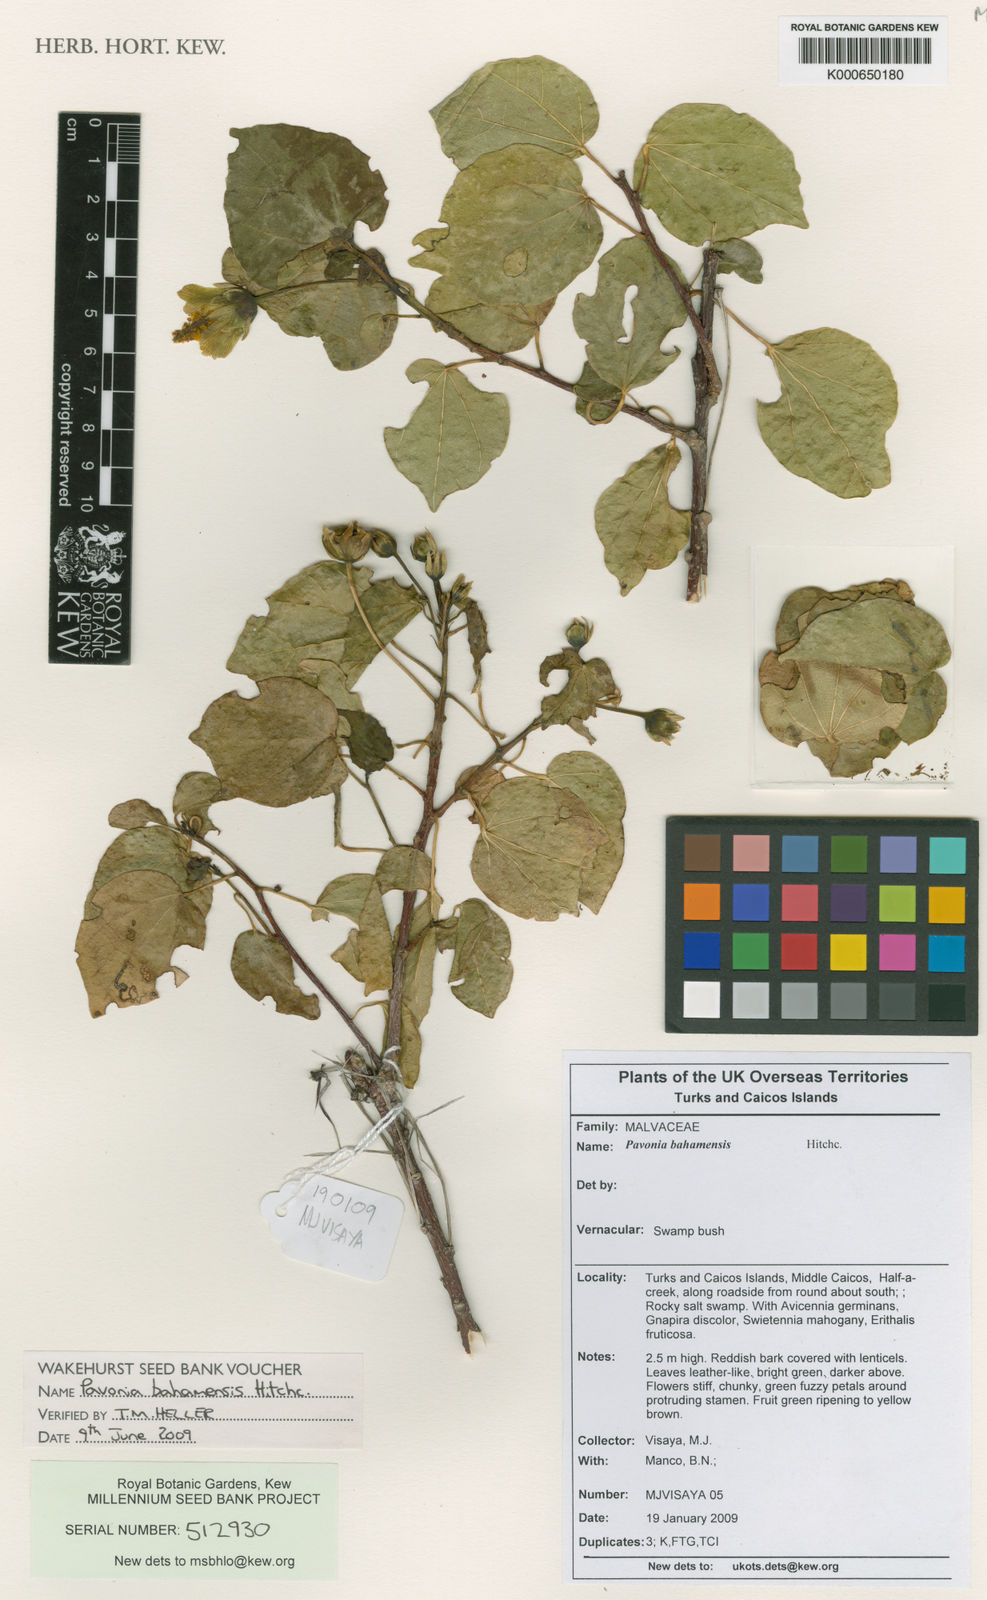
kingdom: Plantae
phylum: Tracheophyta
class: Magnoliopsida
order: Malvales
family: Malvaceae
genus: Pavonia
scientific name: Pavonia bahamensis
